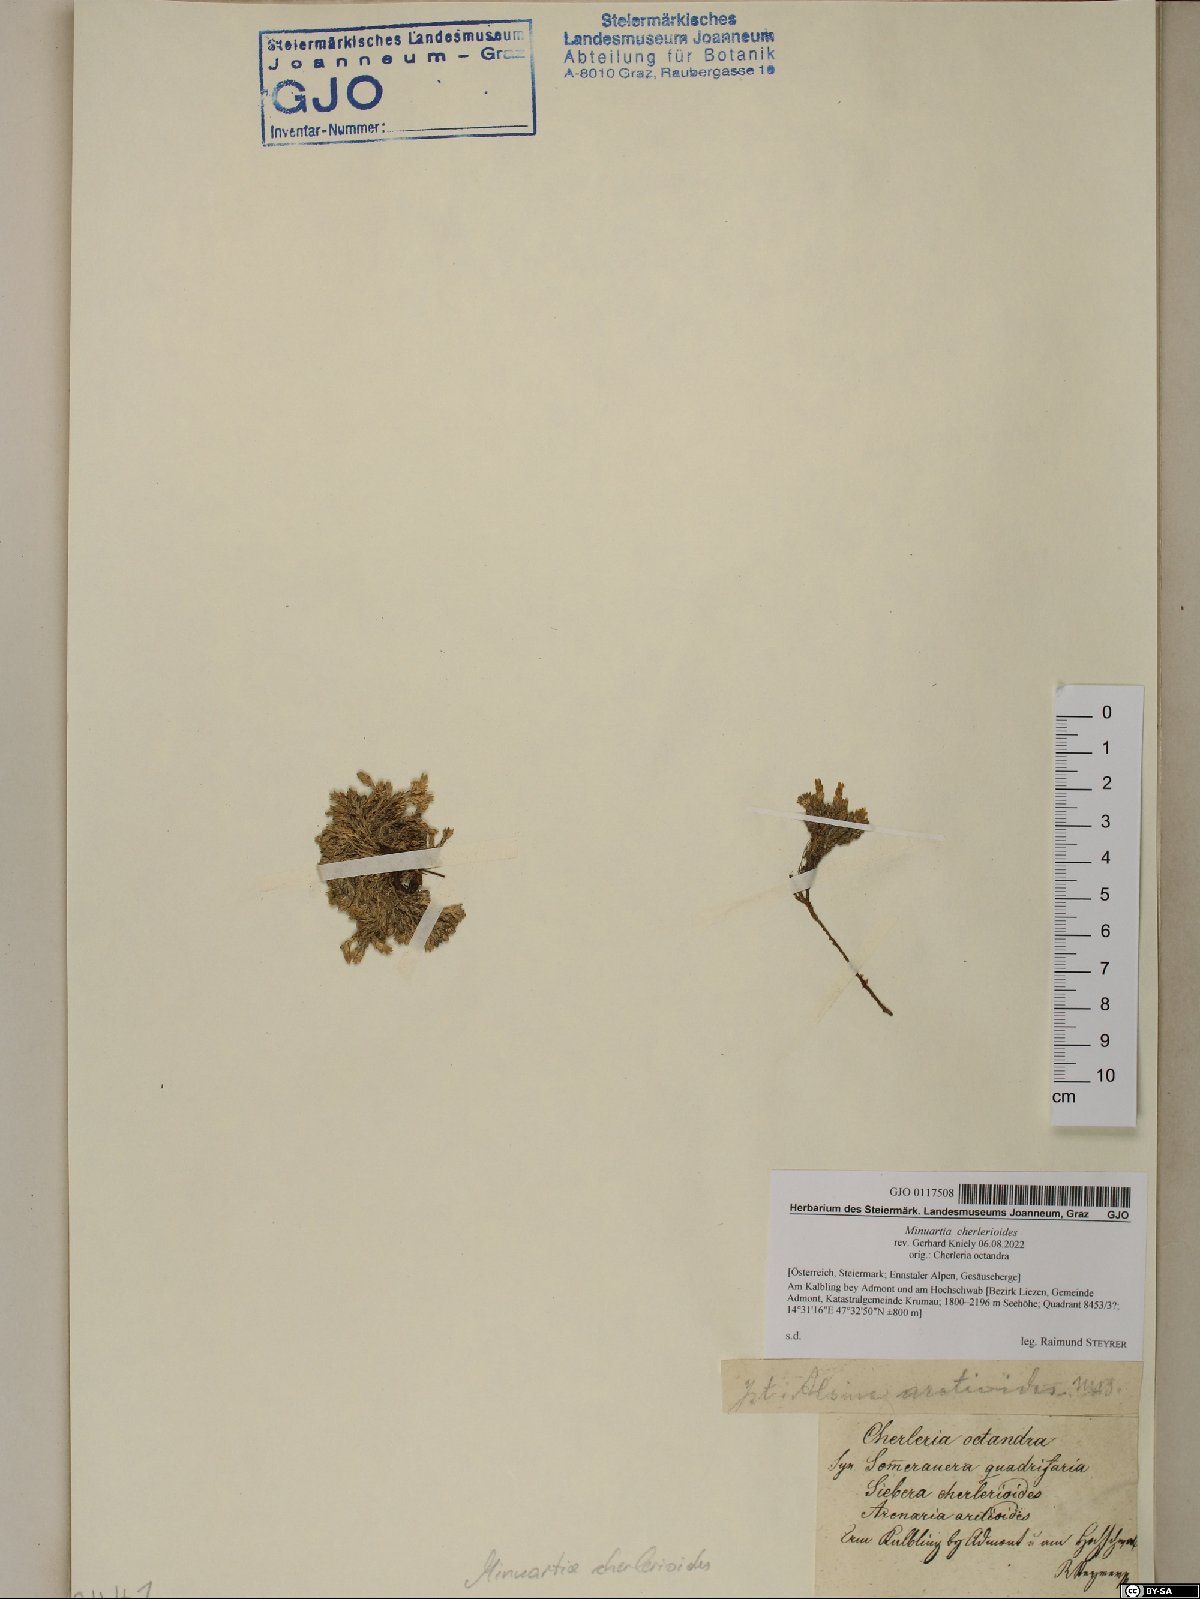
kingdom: Plantae
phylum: Tracheophyta
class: Magnoliopsida
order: Caryophyllales
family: Caryophyllaceae
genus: Facchinia
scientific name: Facchinia cherlerioides
